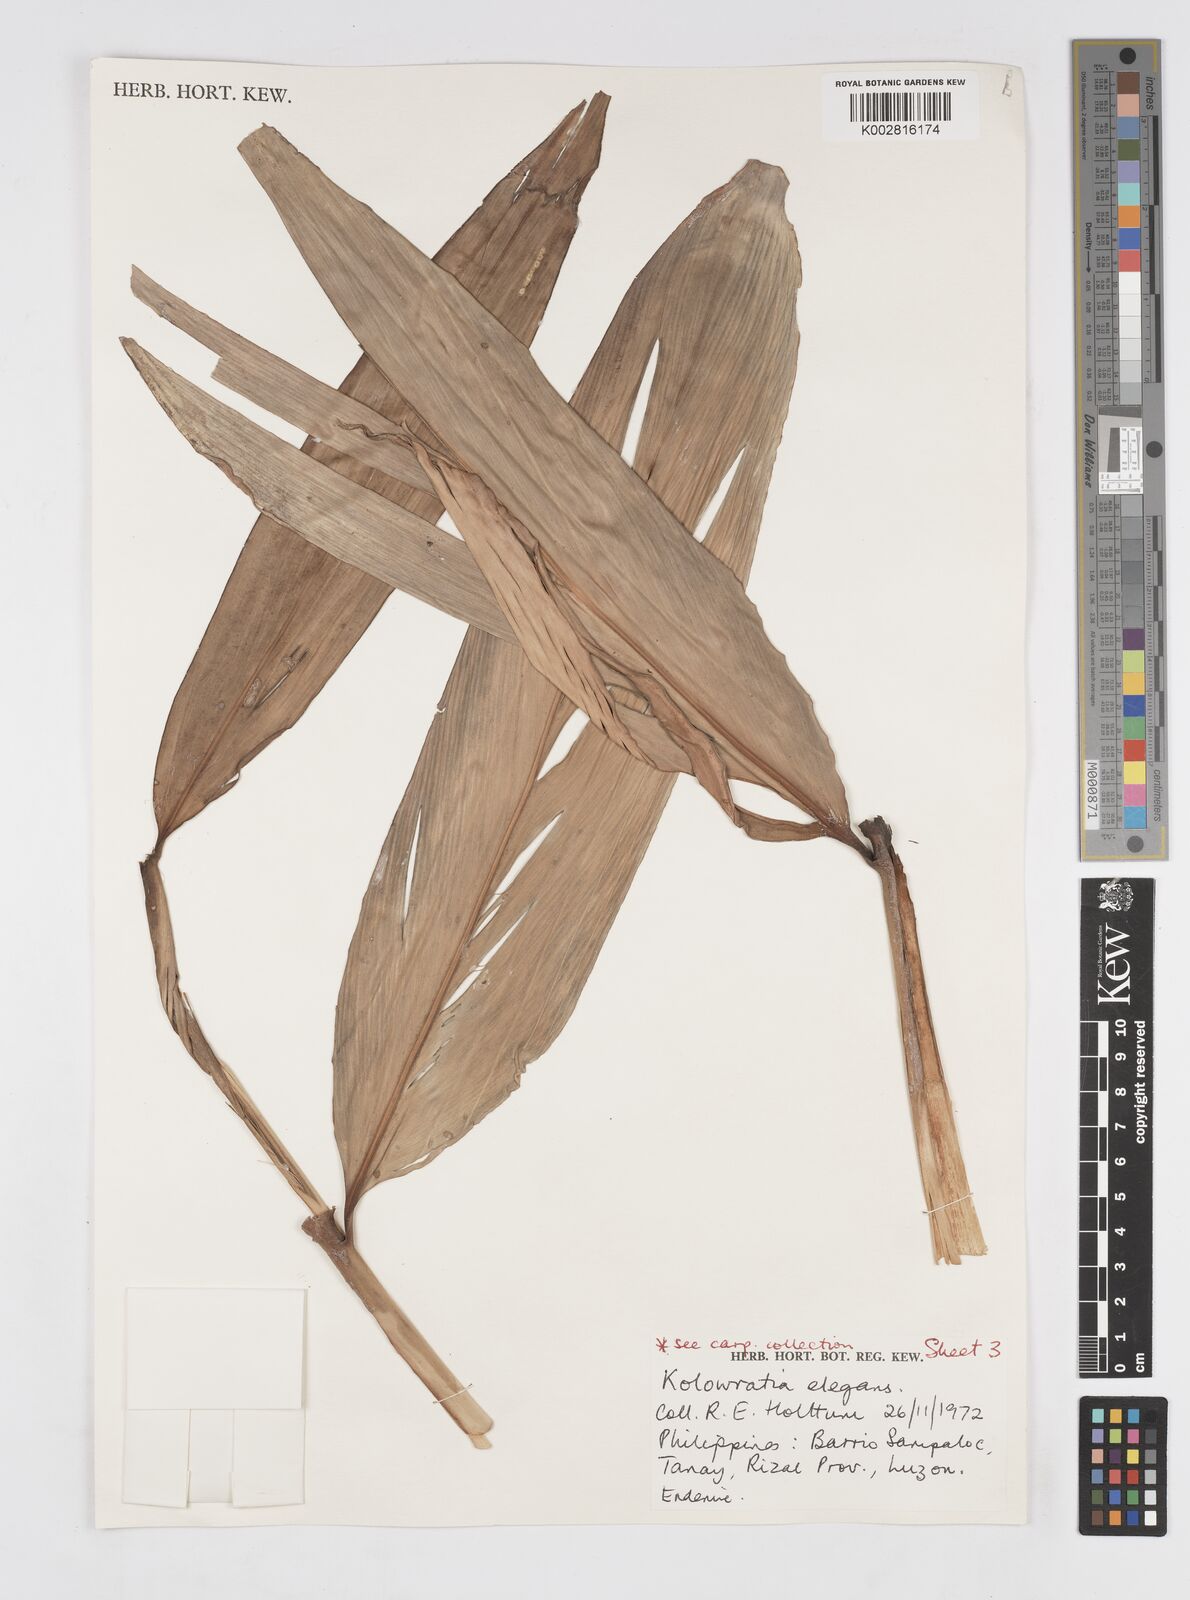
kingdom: Plantae
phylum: Tracheophyta
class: Liliopsida
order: Zingiberales
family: Zingiberaceae
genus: Alpinia
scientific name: Alpinia elegans
